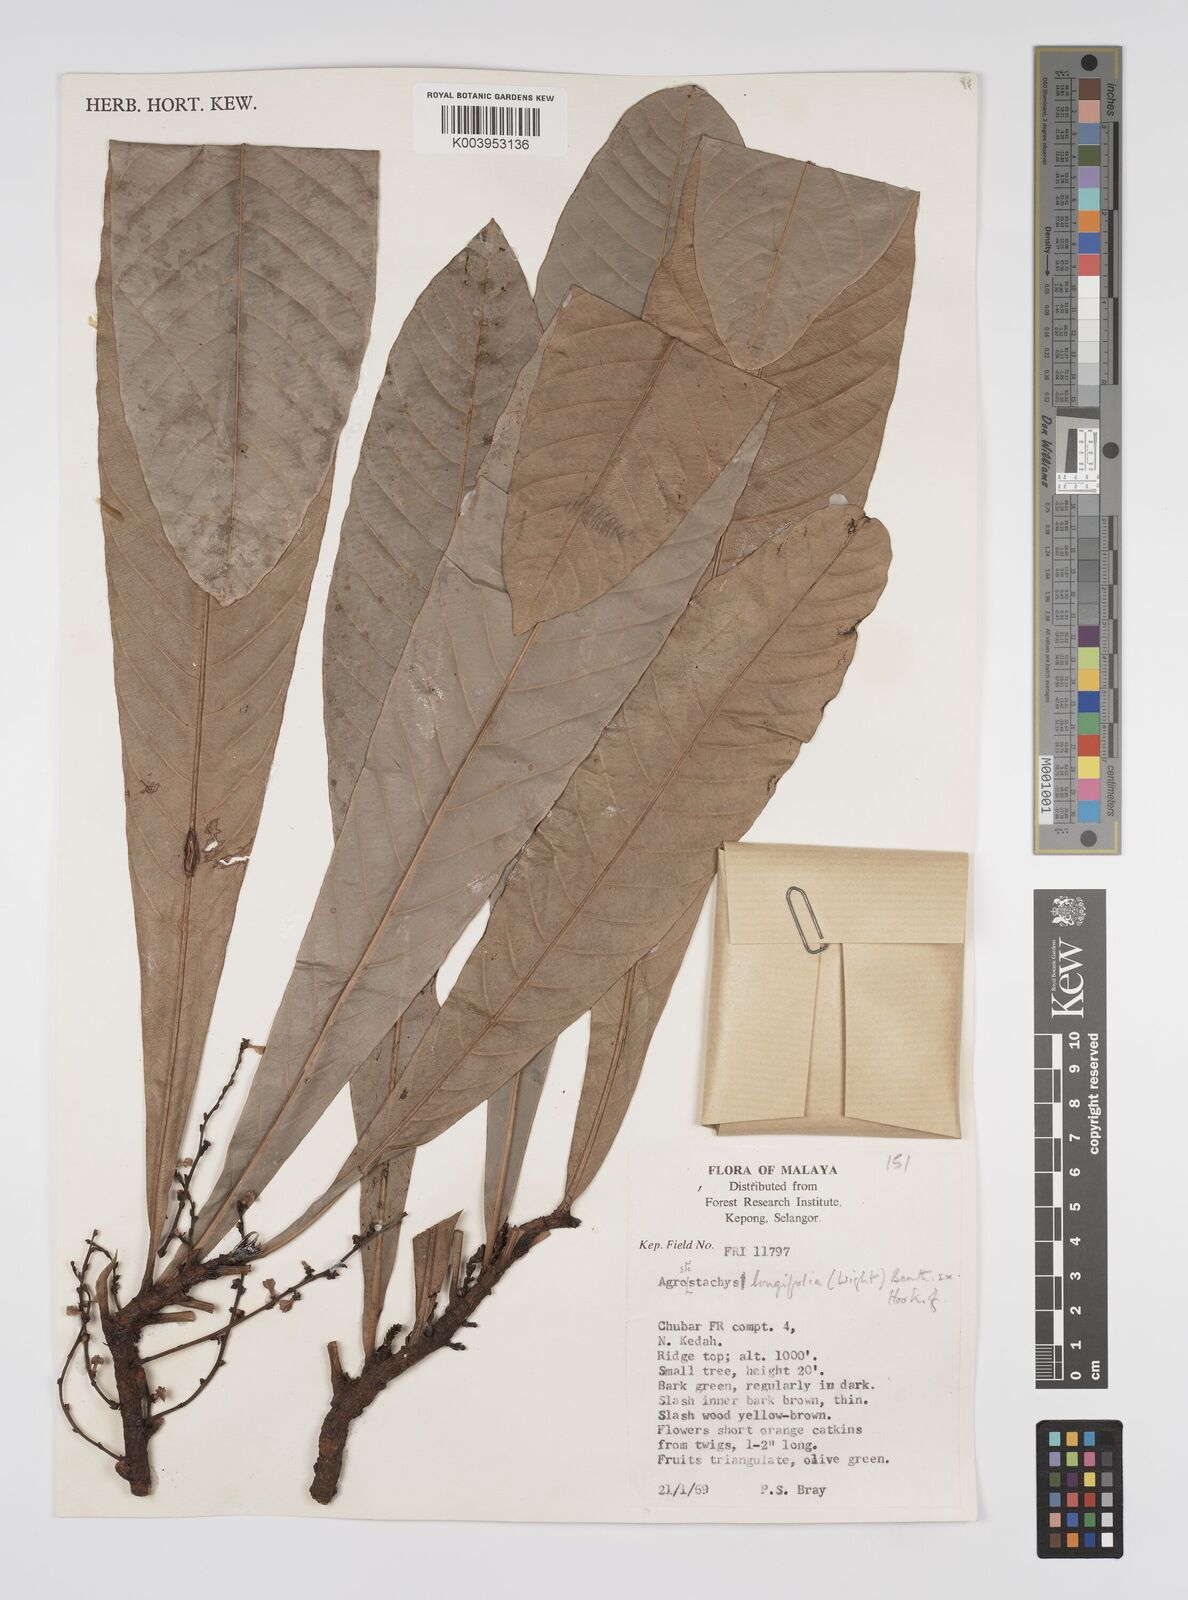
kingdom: Plantae
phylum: Tracheophyta
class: Magnoliopsida
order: Malpighiales
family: Euphorbiaceae
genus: Agrostistachys
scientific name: Agrostistachys borneensis
